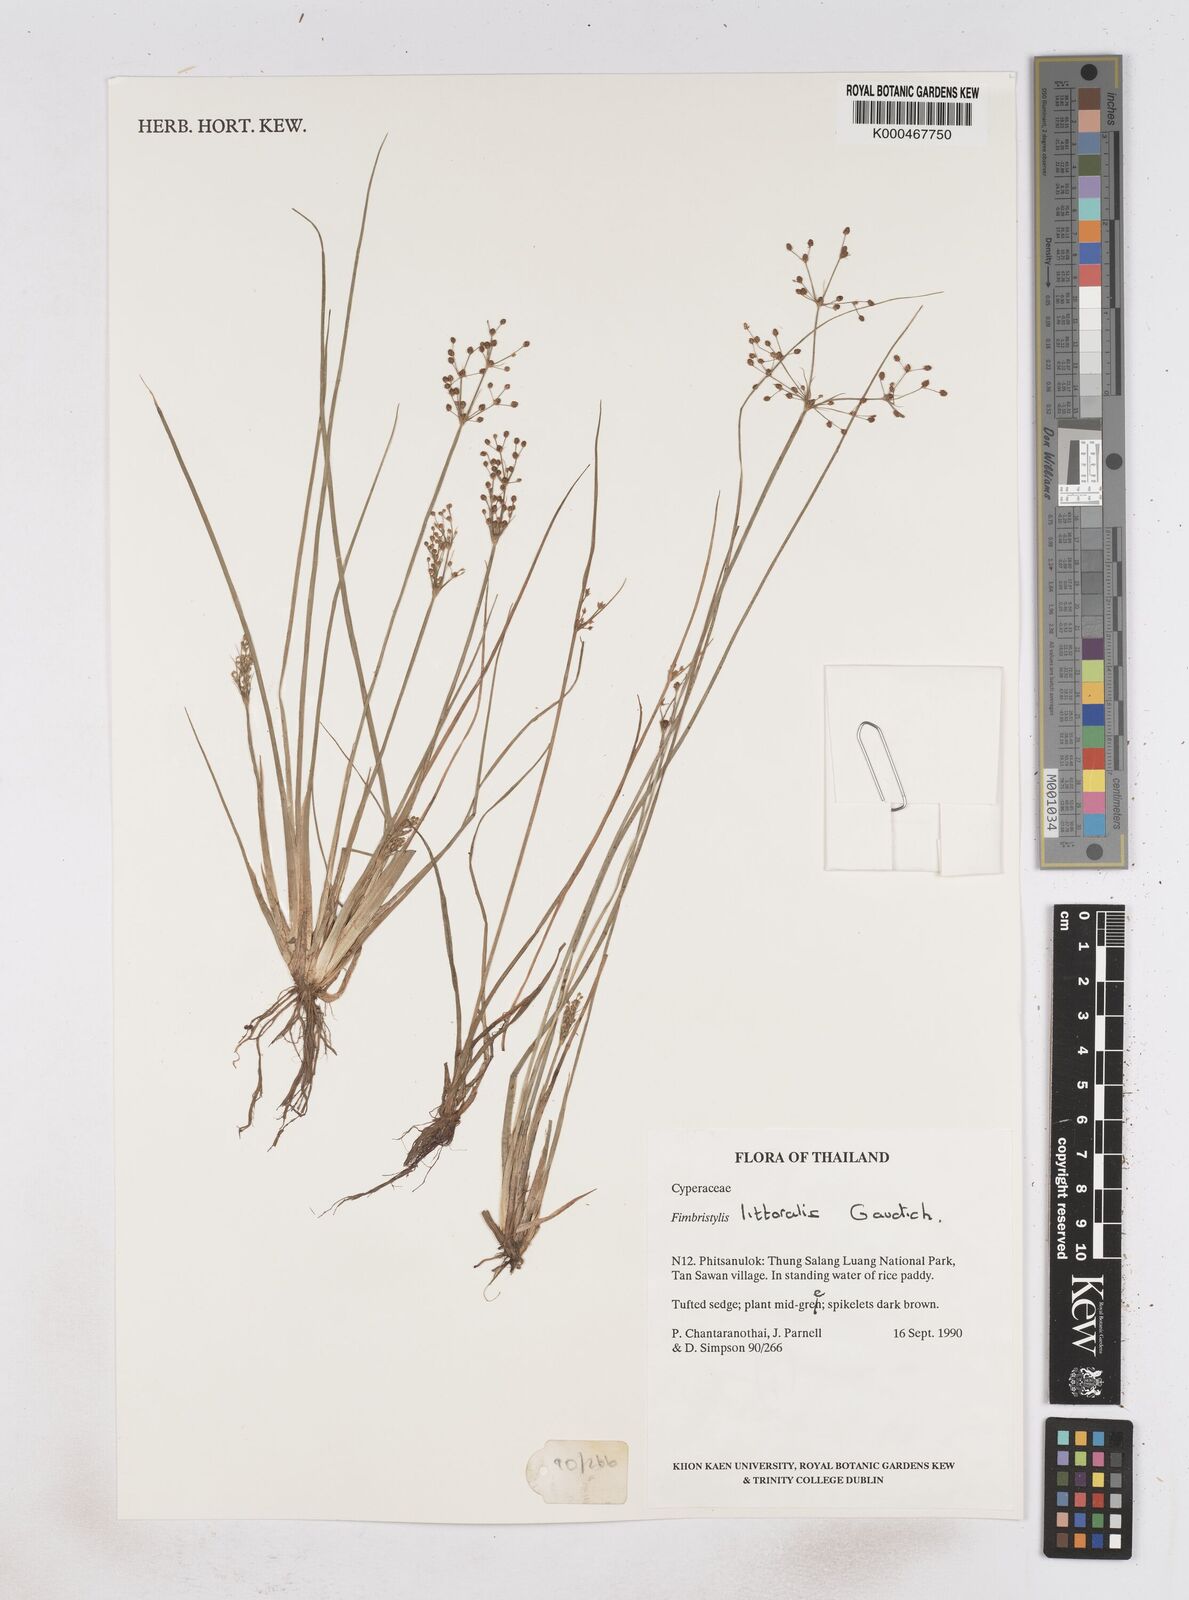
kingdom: Plantae
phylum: Tracheophyta
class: Liliopsida
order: Poales
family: Cyperaceae
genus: Fimbristylis
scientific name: Fimbristylis quinquangularis
